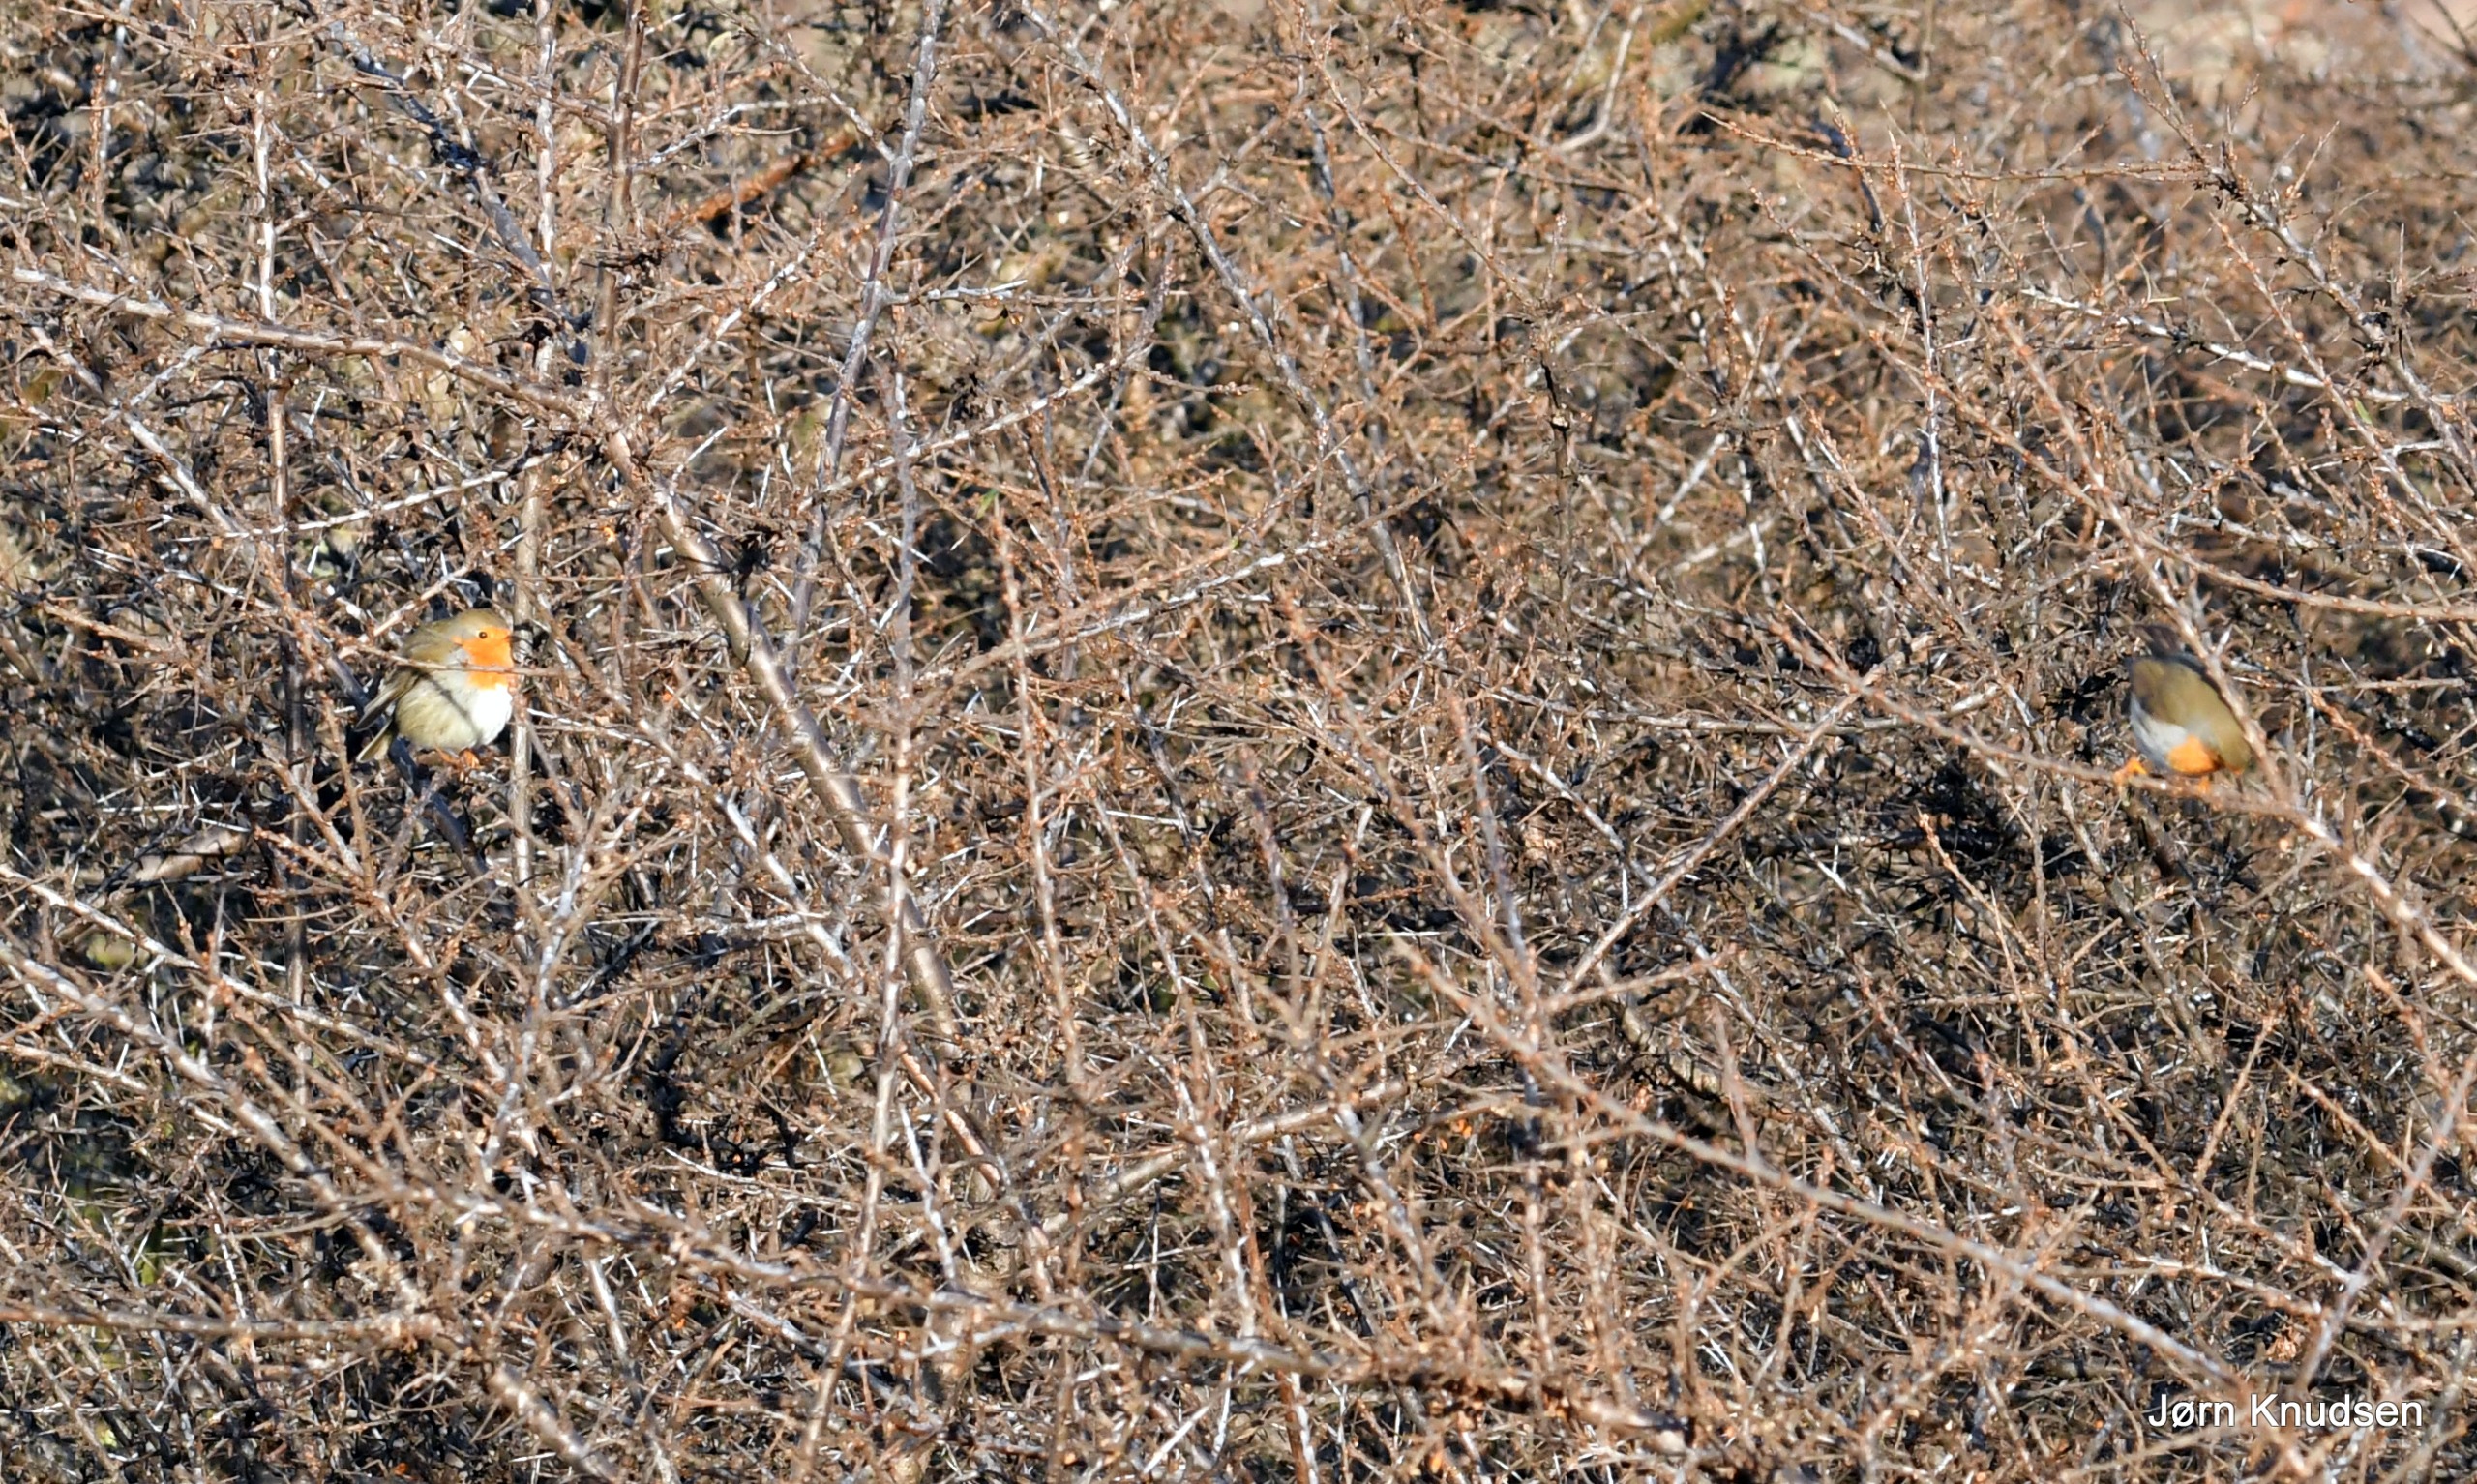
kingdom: Animalia
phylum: Chordata
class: Aves
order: Passeriformes
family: Muscicapidae
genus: Erithacus
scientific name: Erithacus rubecula
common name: Rødhals/rødkælk
